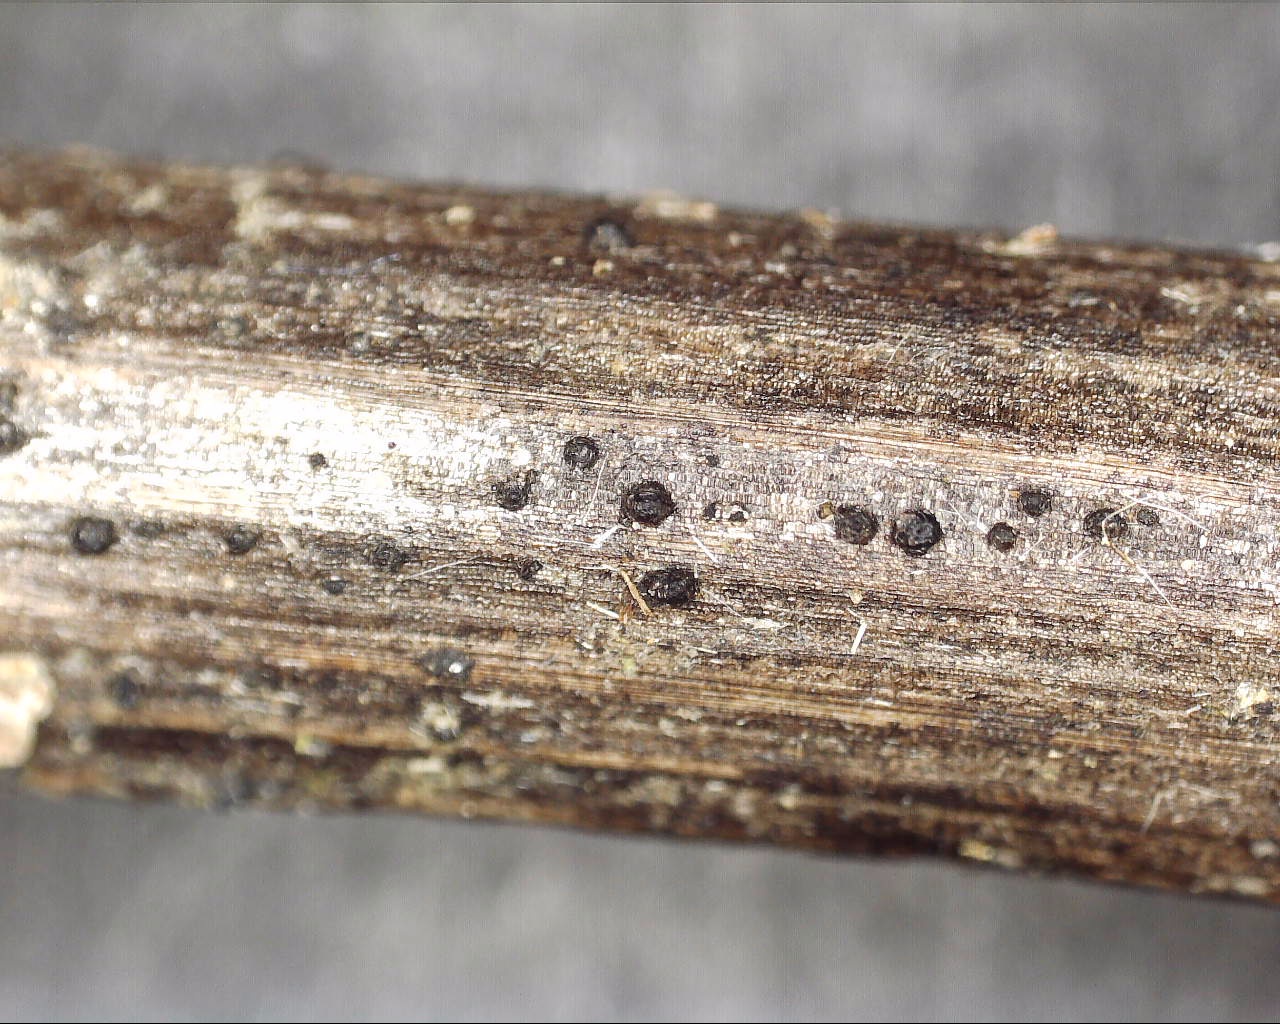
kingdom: Fungi
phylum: Ascomycota
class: Dothideomycetes
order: Pleosporales
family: Phaeosphaeriaceae
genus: Phaeosphaeria
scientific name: Phaeosphaeria sowerbyi
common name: kål-kulkegle
